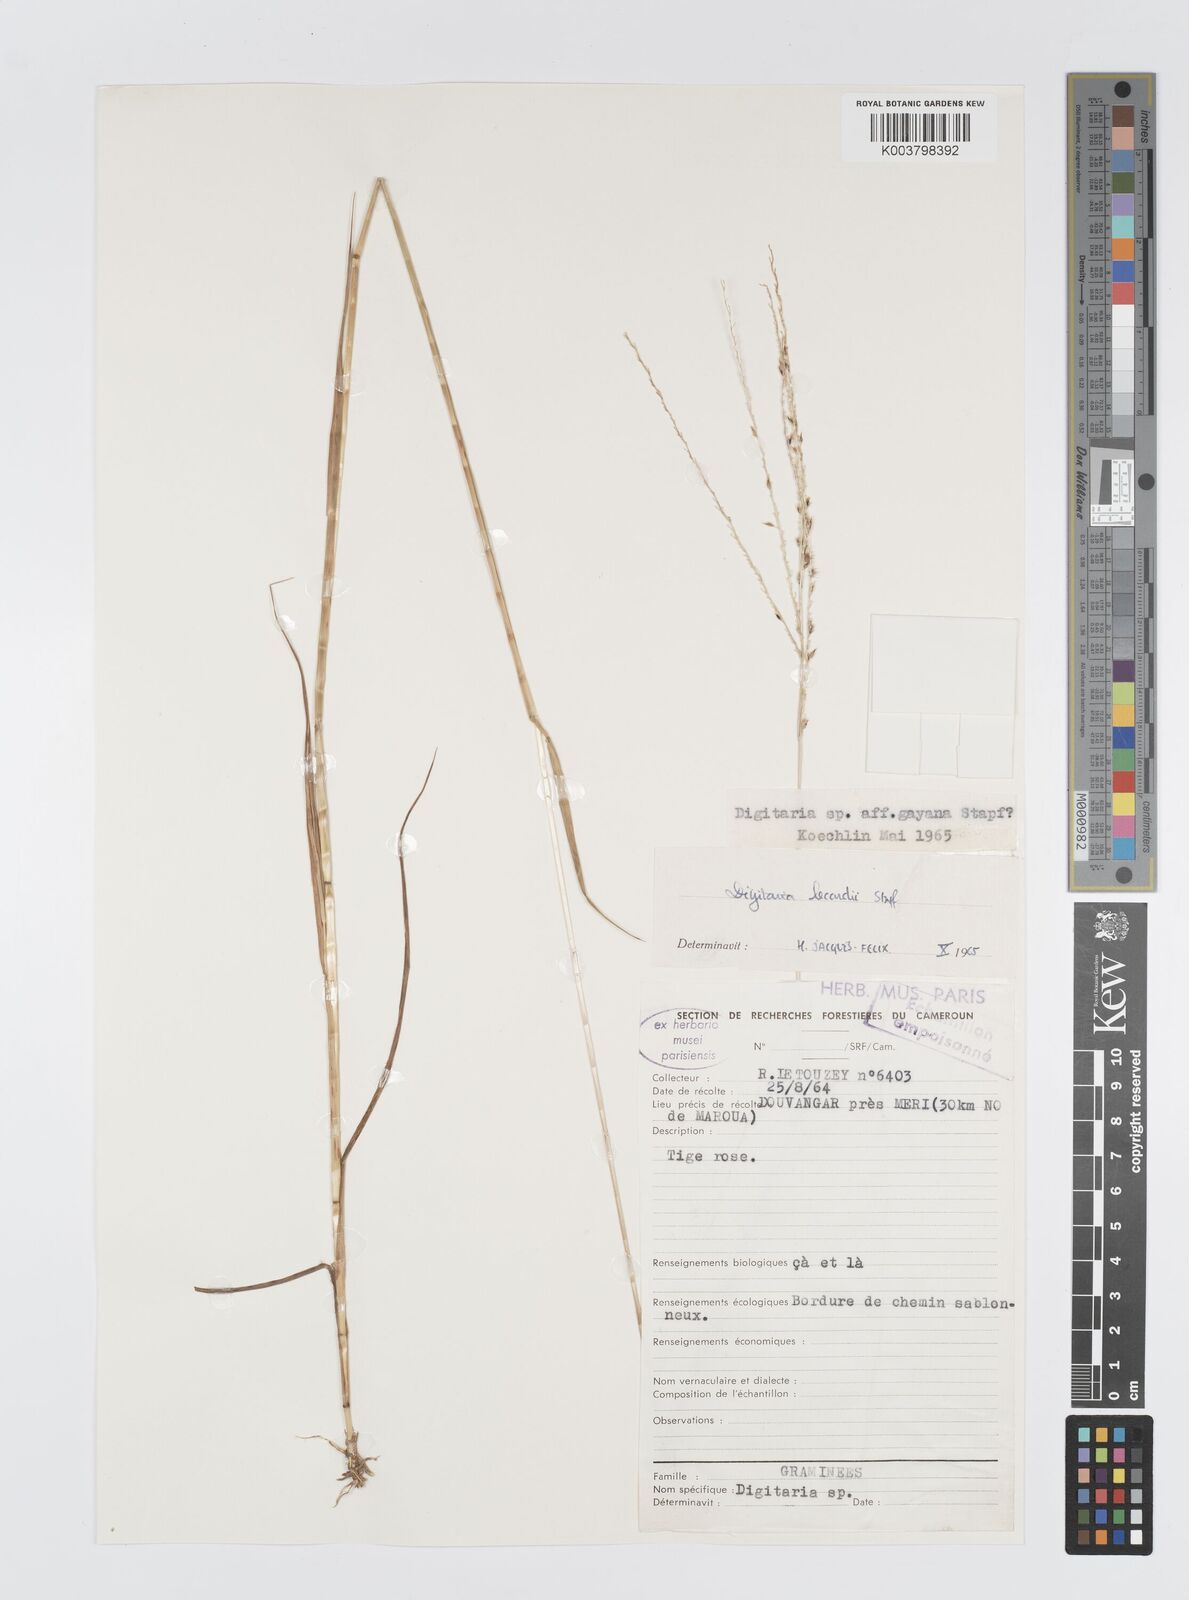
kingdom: Plantae
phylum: Tracheophyta
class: Liliopsida
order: Poales
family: Poaceae
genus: Digitaria
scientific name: Digitaria argillacea
